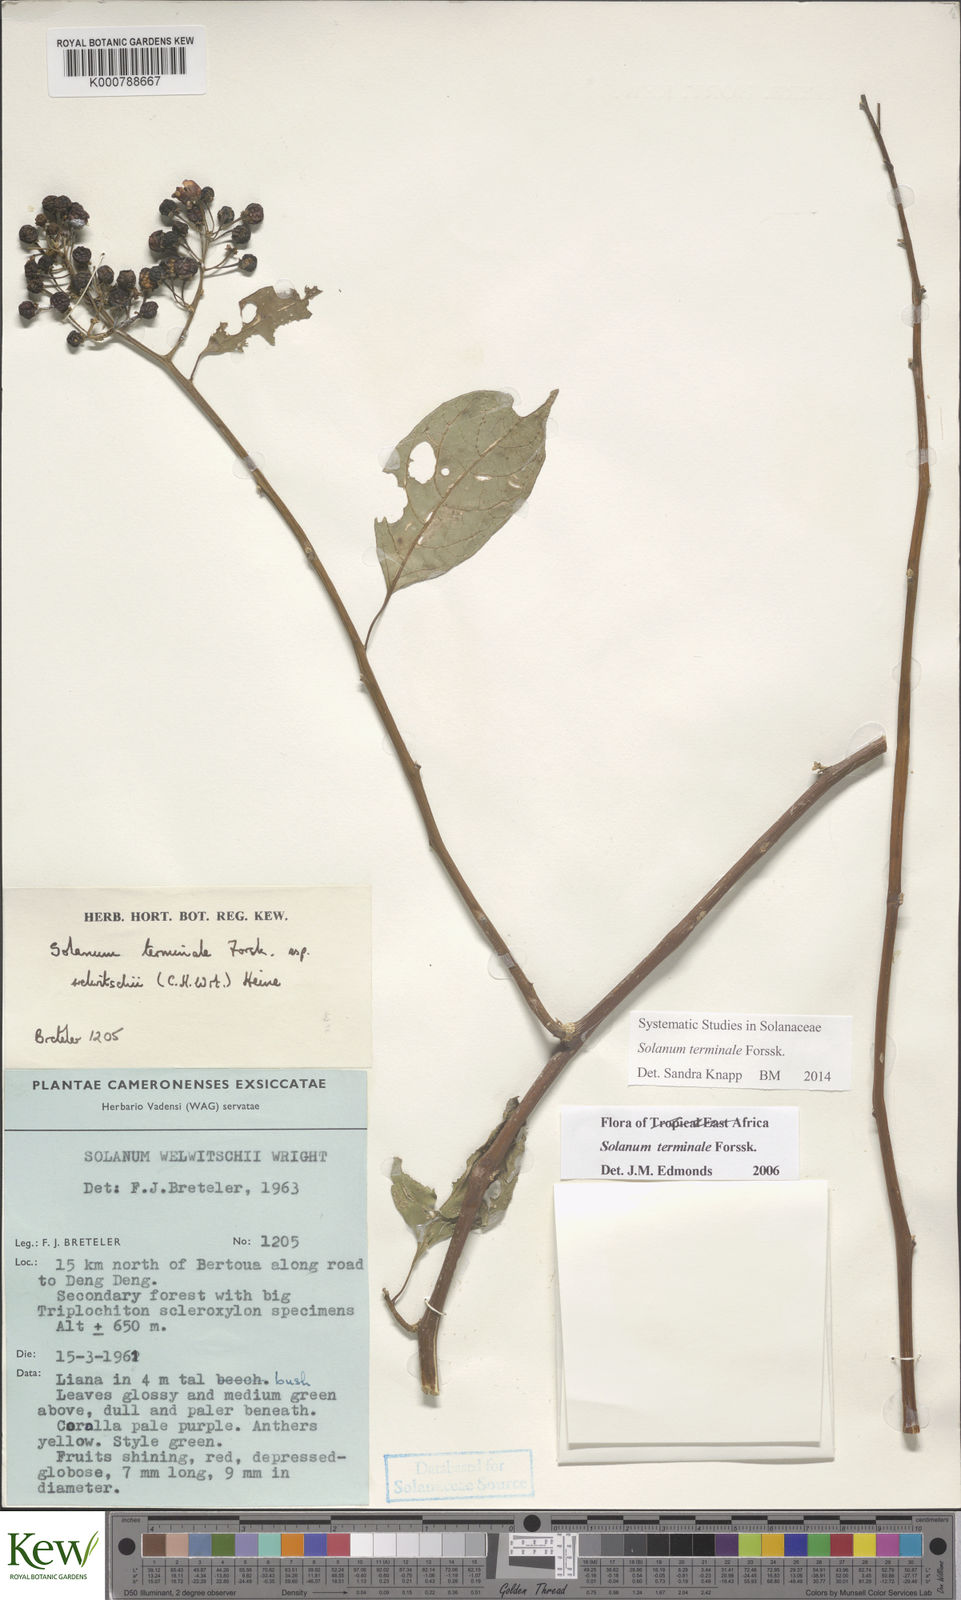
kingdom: Plantae
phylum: Tracheophyta
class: Magnoliopsida
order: Solanales
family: Solanaceae
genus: Solanum
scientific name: Solanum terminale
